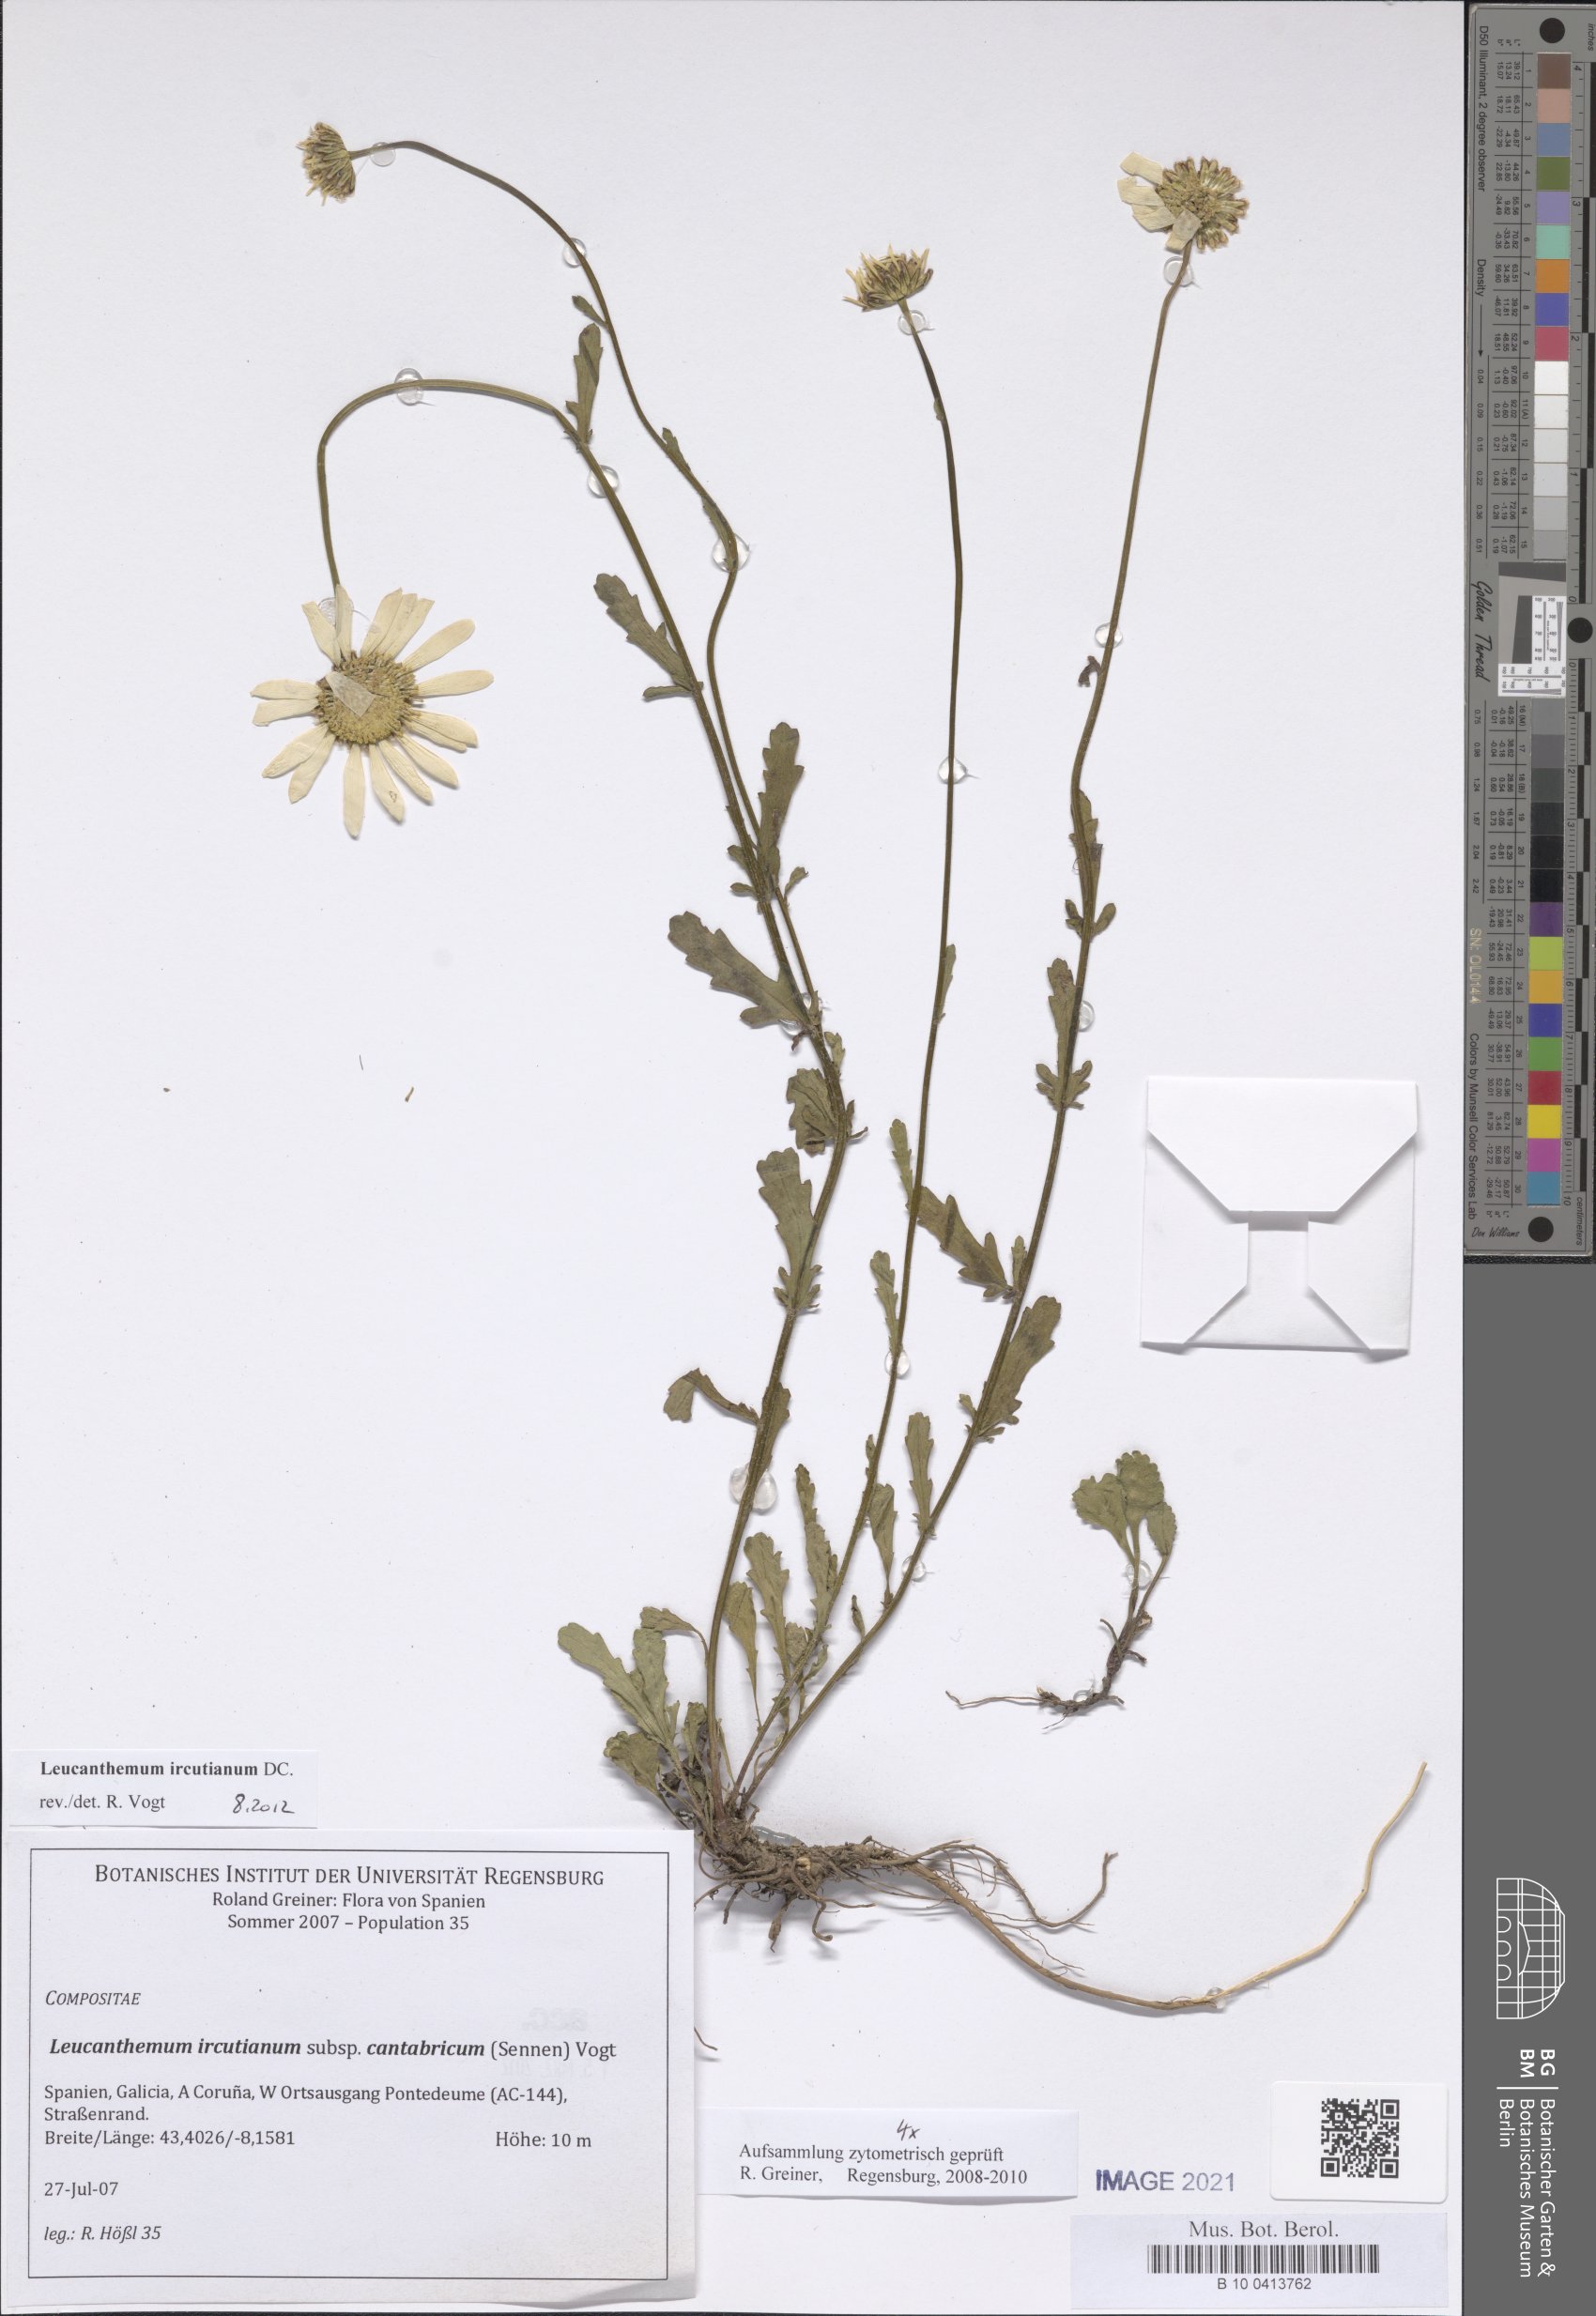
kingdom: Plantae
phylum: Tracheophyta
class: Magnoliopsida
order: Asterales
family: Asteraceae
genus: Leucanthemum
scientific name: Leucanthemum ircutianum
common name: Daisy
